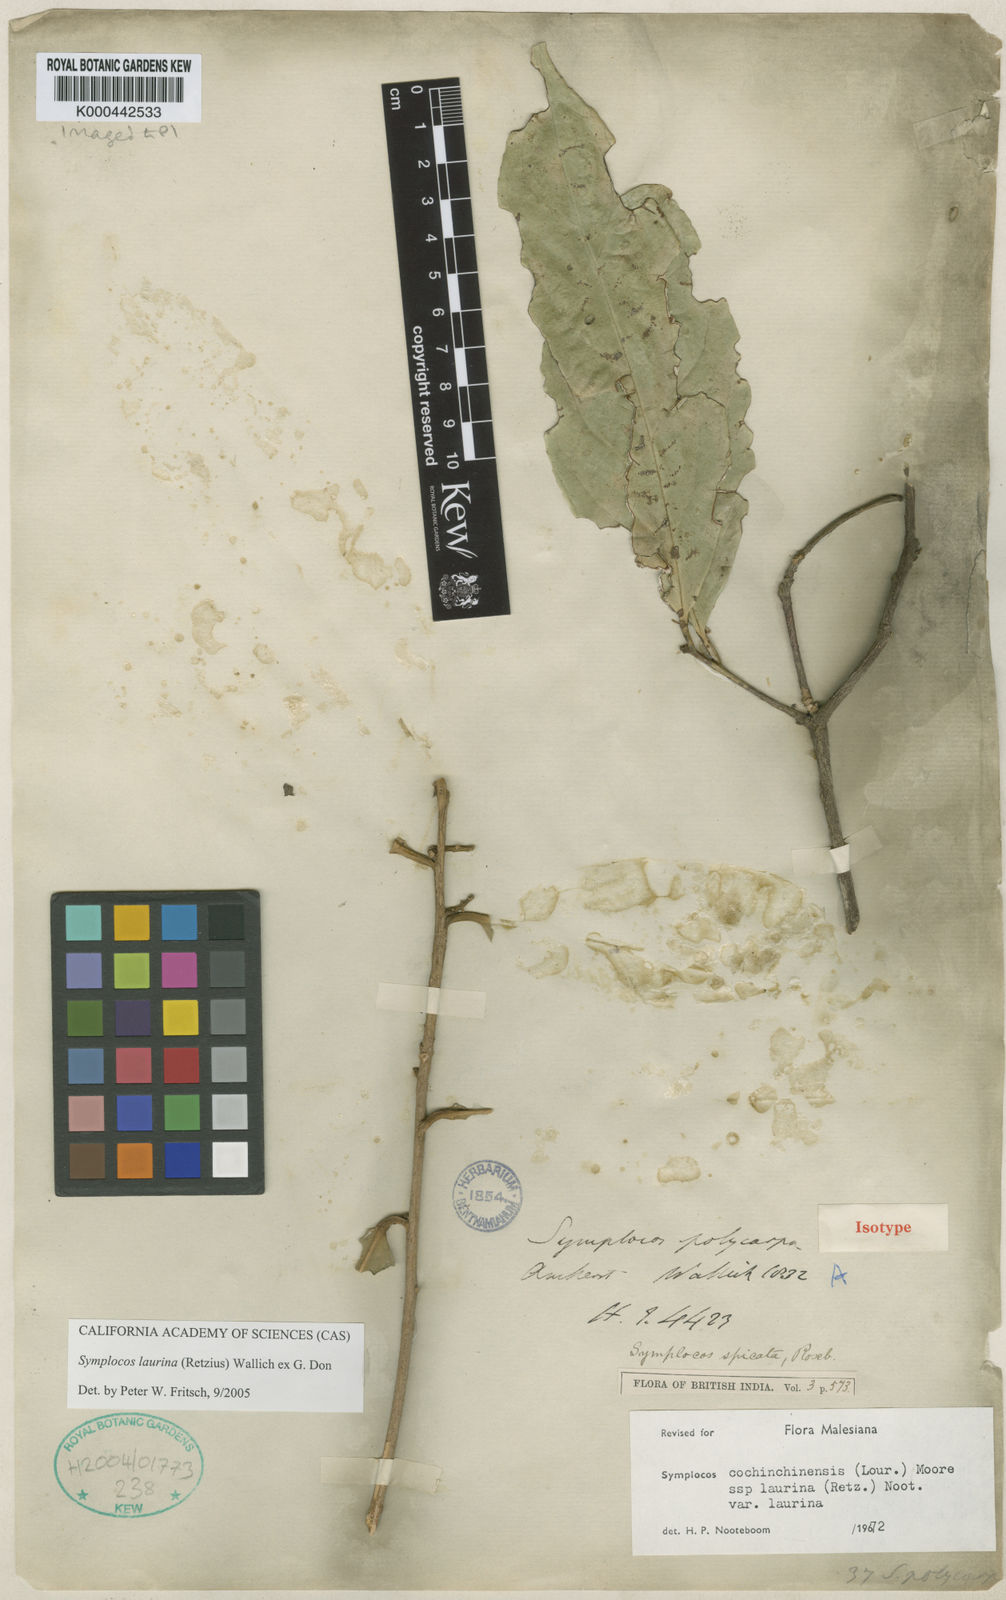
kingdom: Plantae
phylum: Tracheophyta
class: Magnoliopsida
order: Ericales
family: Symplocaceae
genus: Symplocos
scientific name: Symplocos acuminata
